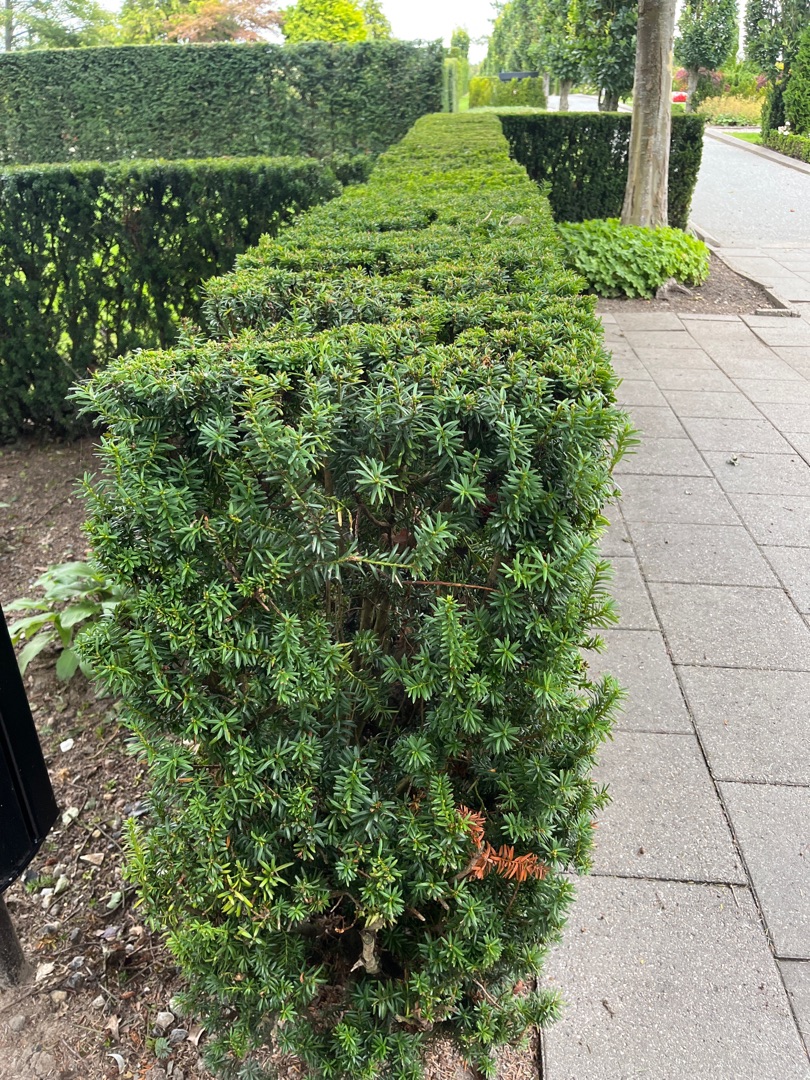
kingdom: Plantae
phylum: Tracheophyta
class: Pinopsida
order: Pinales
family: Taxaceae
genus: Taxus
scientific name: Taxus baccata
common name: Almindelig taks
